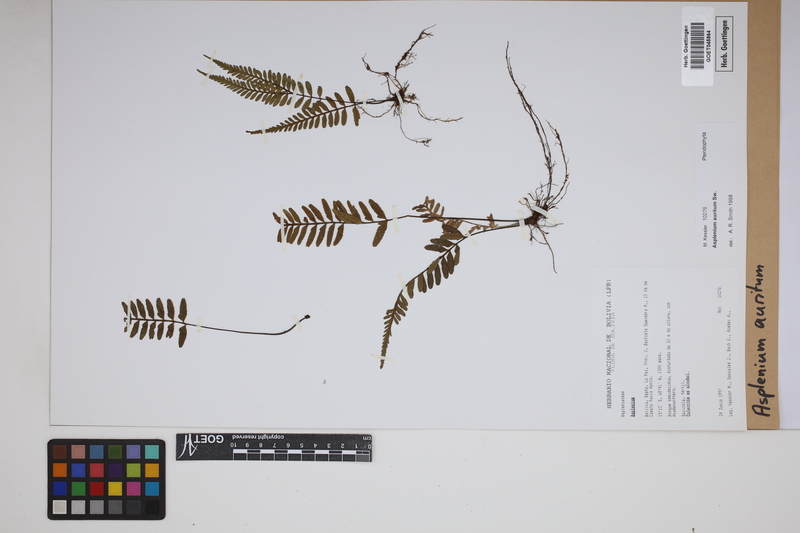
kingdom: Plantae
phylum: Tracheophyta
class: Polypodiopsida
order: Polypodiales
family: Aspleniaceae
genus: Asplenium
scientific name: Asplenium auritum
